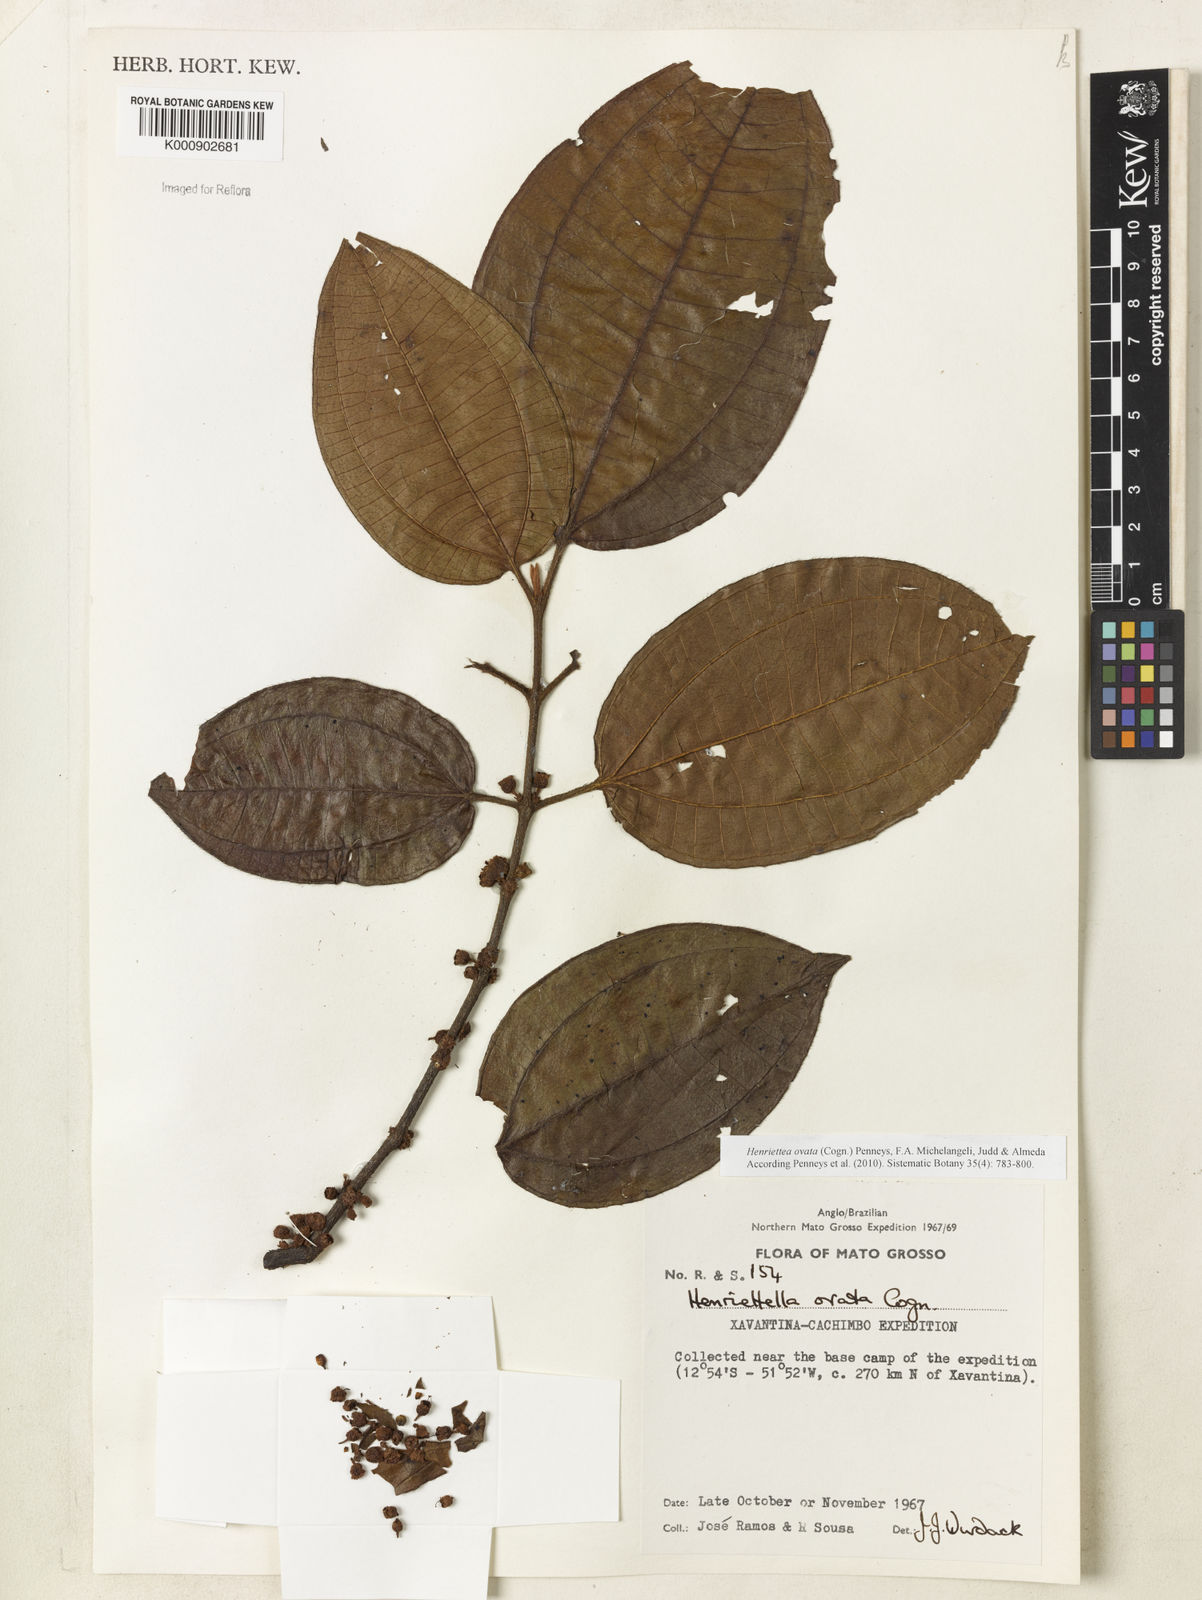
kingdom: Plantae
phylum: Tracheophyta
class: Magnoliopsida
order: Myrtales
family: Melastomataceae
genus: Henriettea
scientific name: Henriettea ovata
